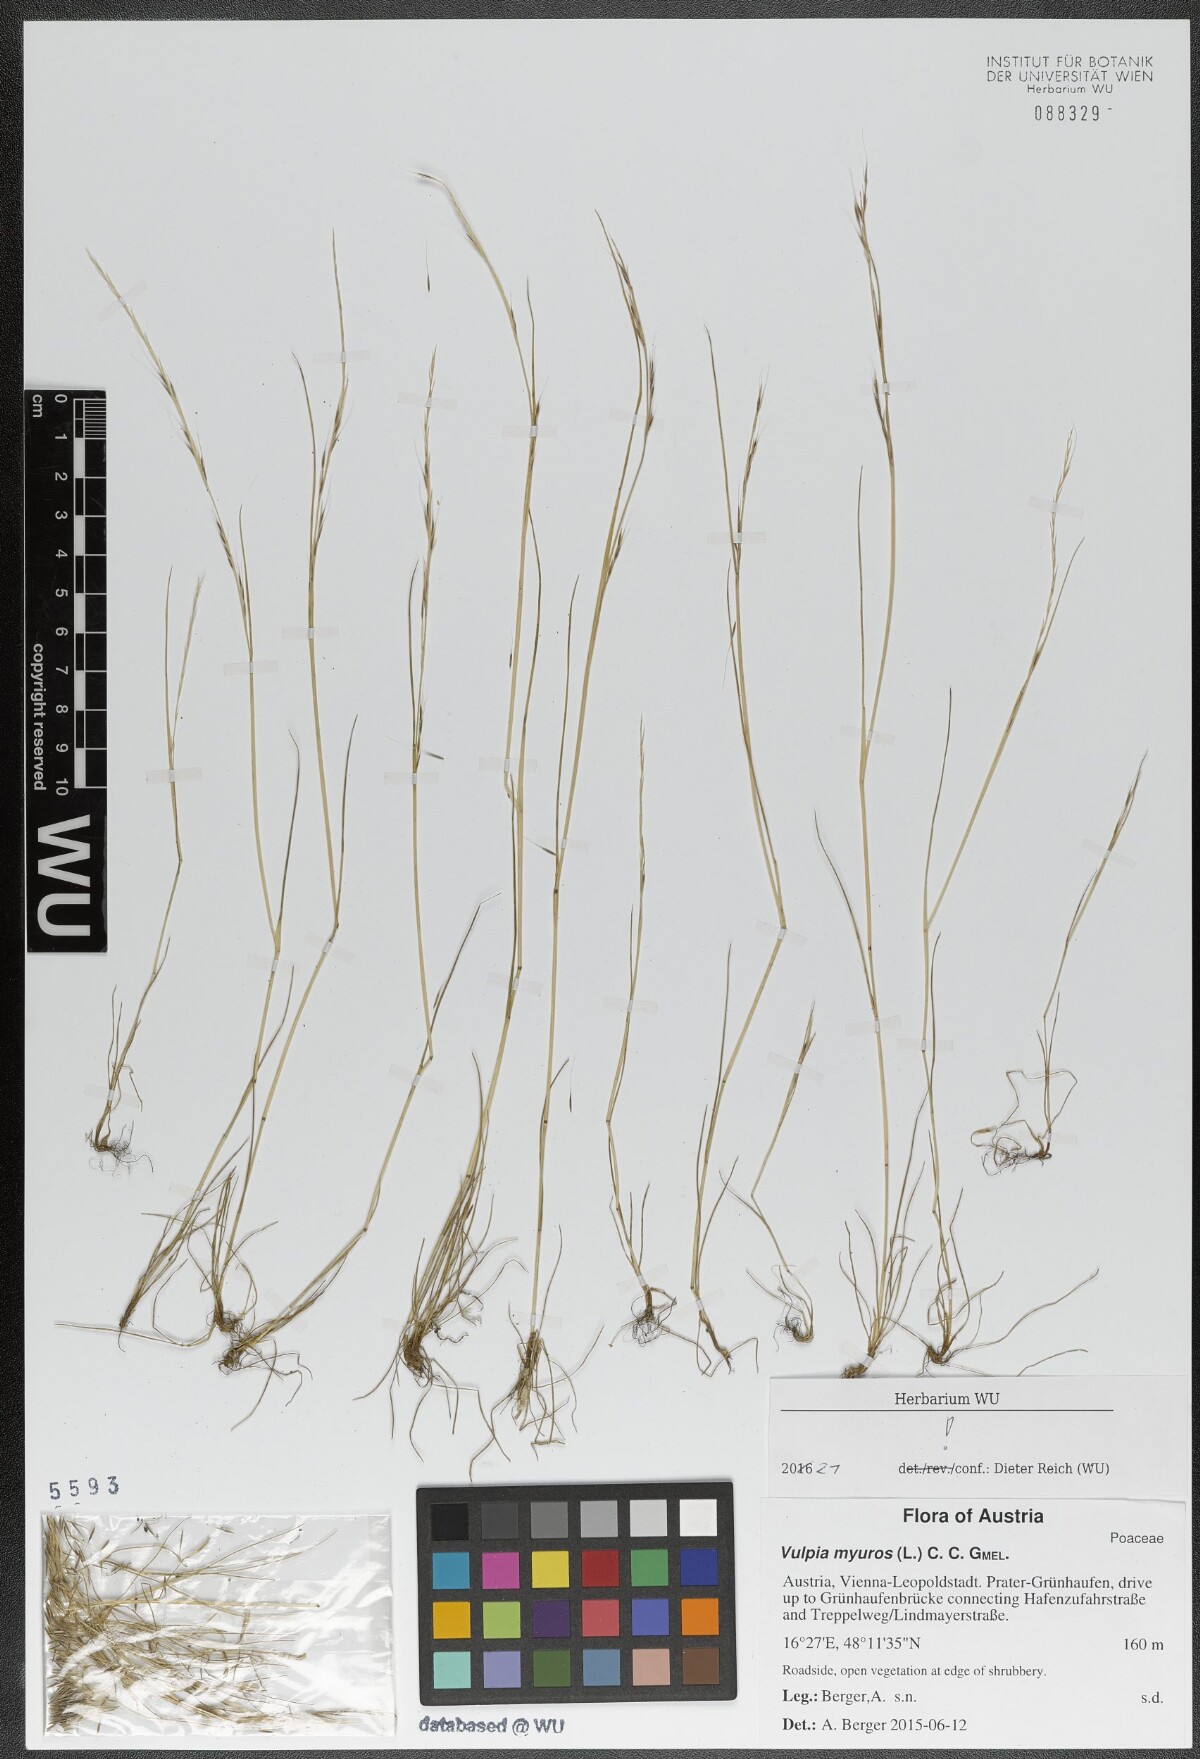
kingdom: Plantae
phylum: Tracheophyta
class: Liliopsida
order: Poales
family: Poaceae
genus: Festuca
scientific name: Festuca myuros
